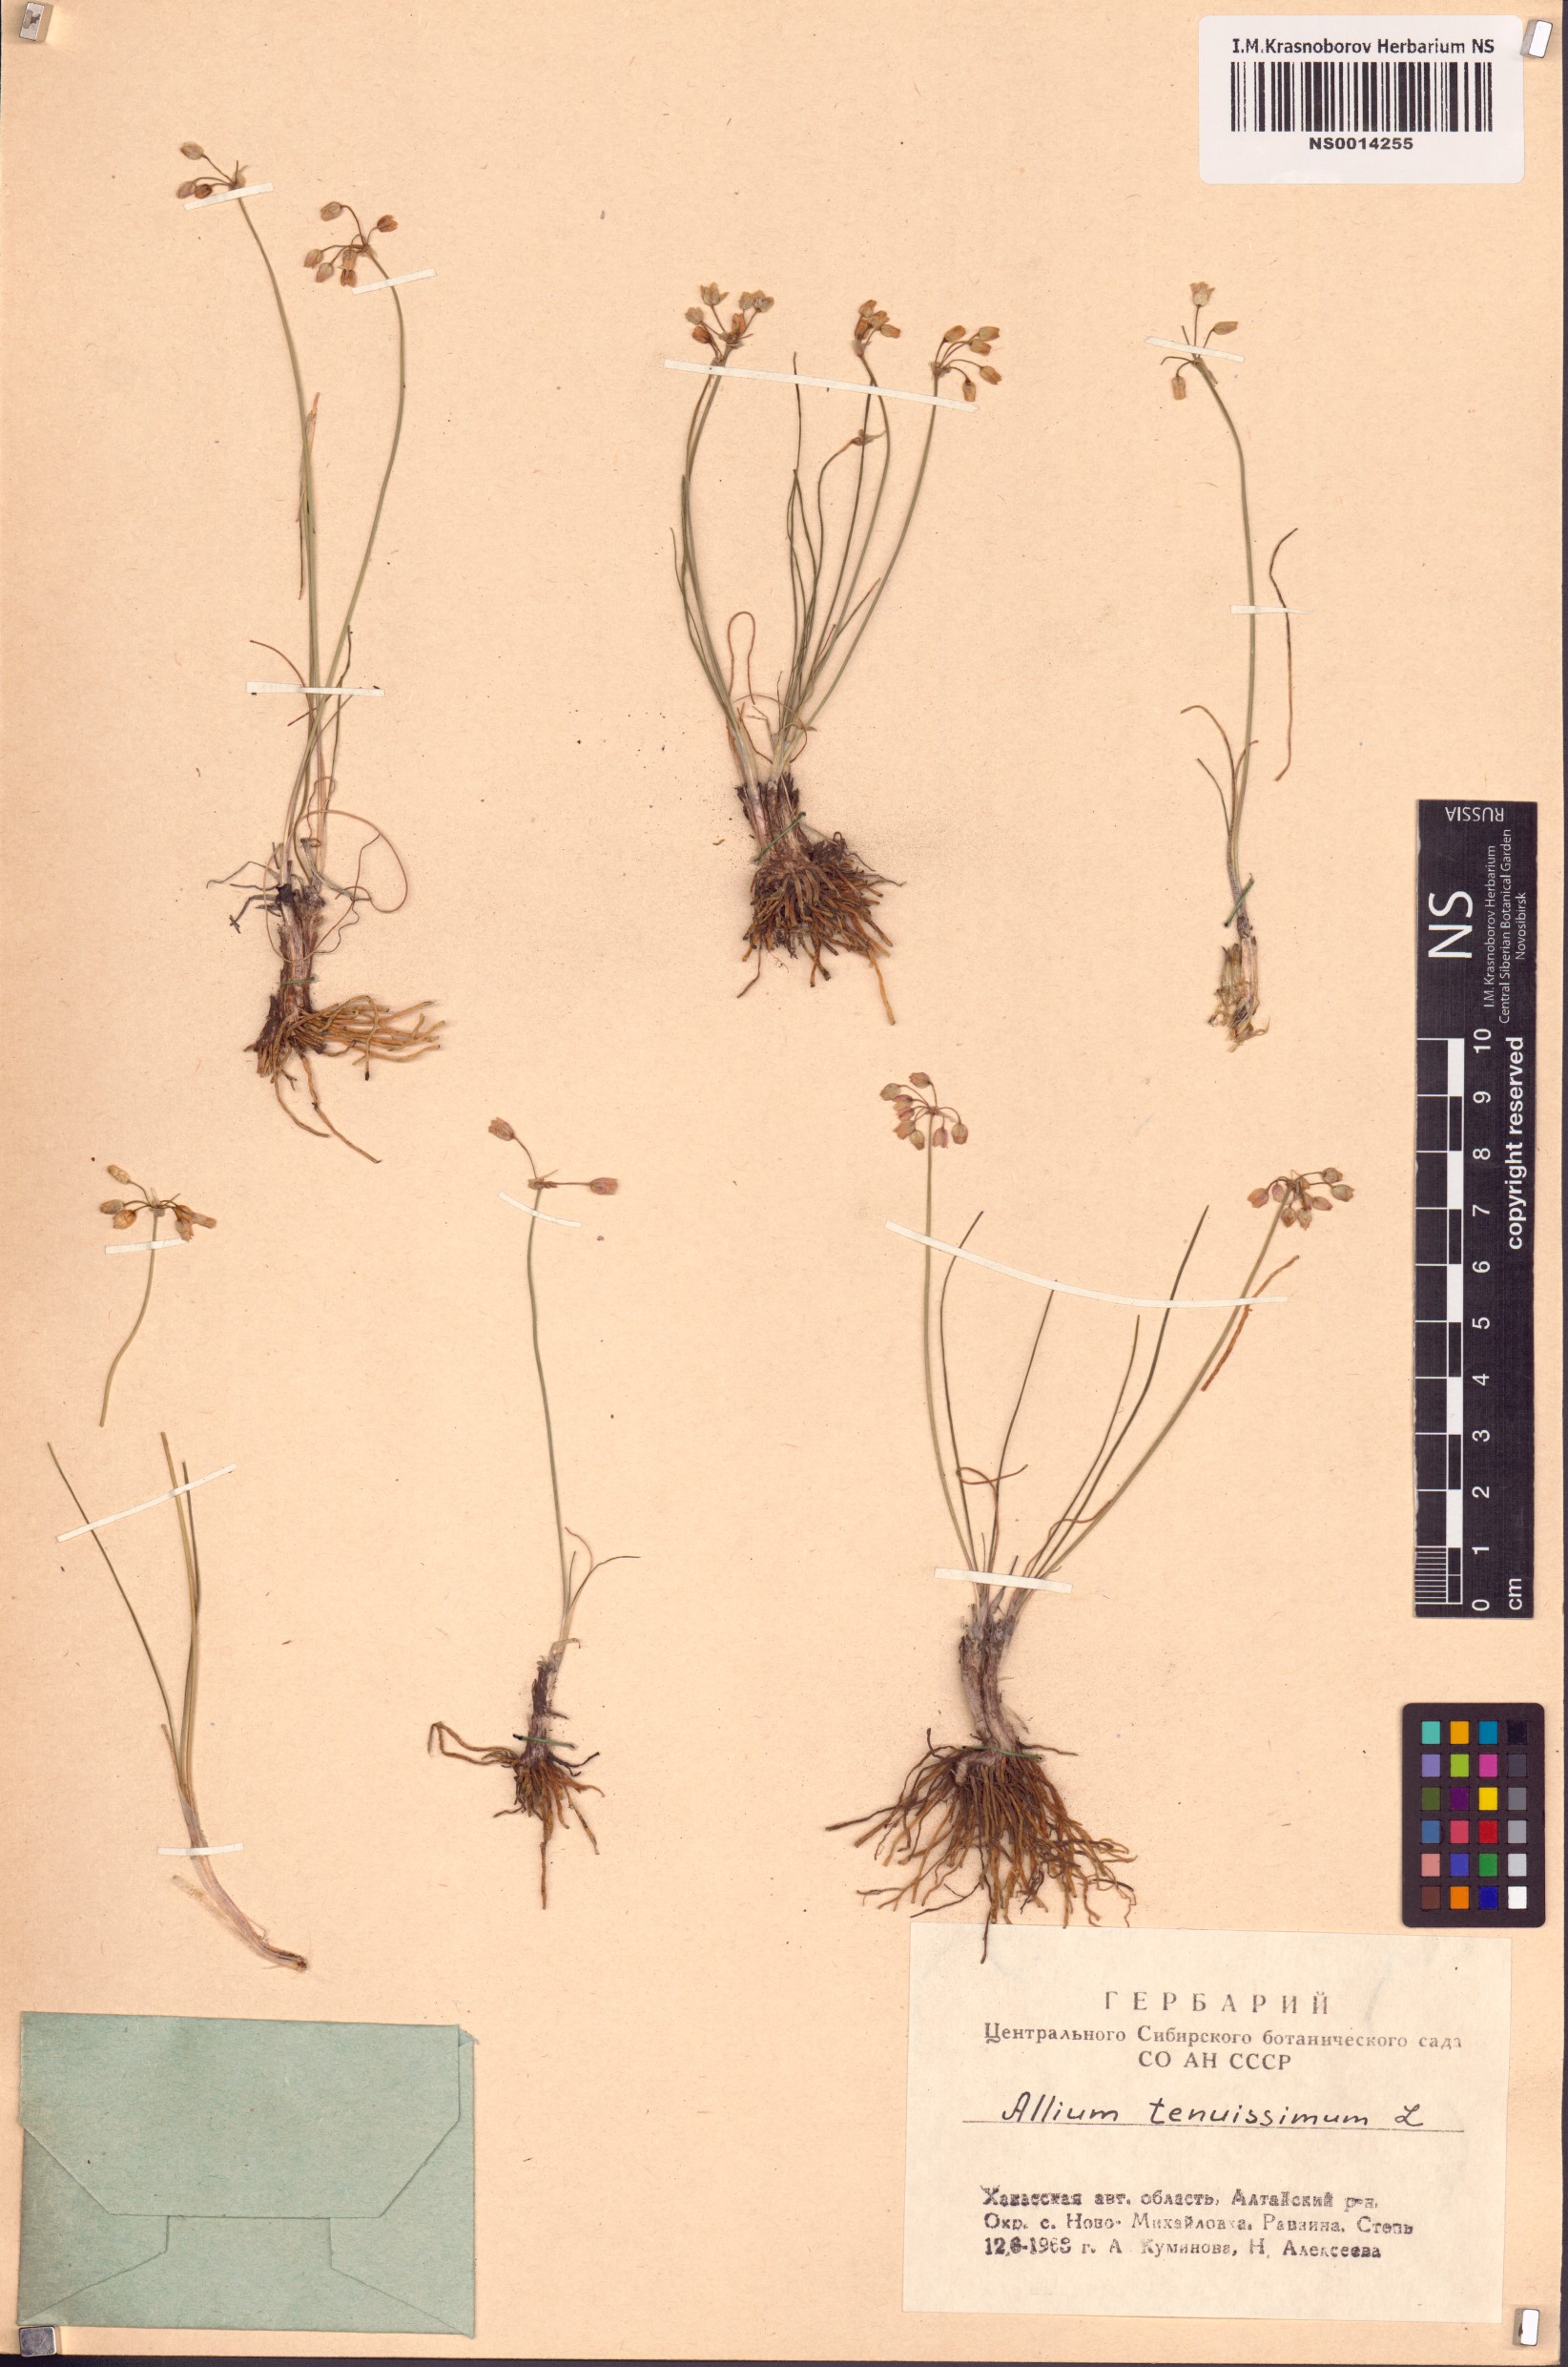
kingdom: Plantae
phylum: Tracheophyta
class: Liliopsida
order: Asparagales
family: Amaryllidaceae
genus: Allium
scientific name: Allium tenuissimum
